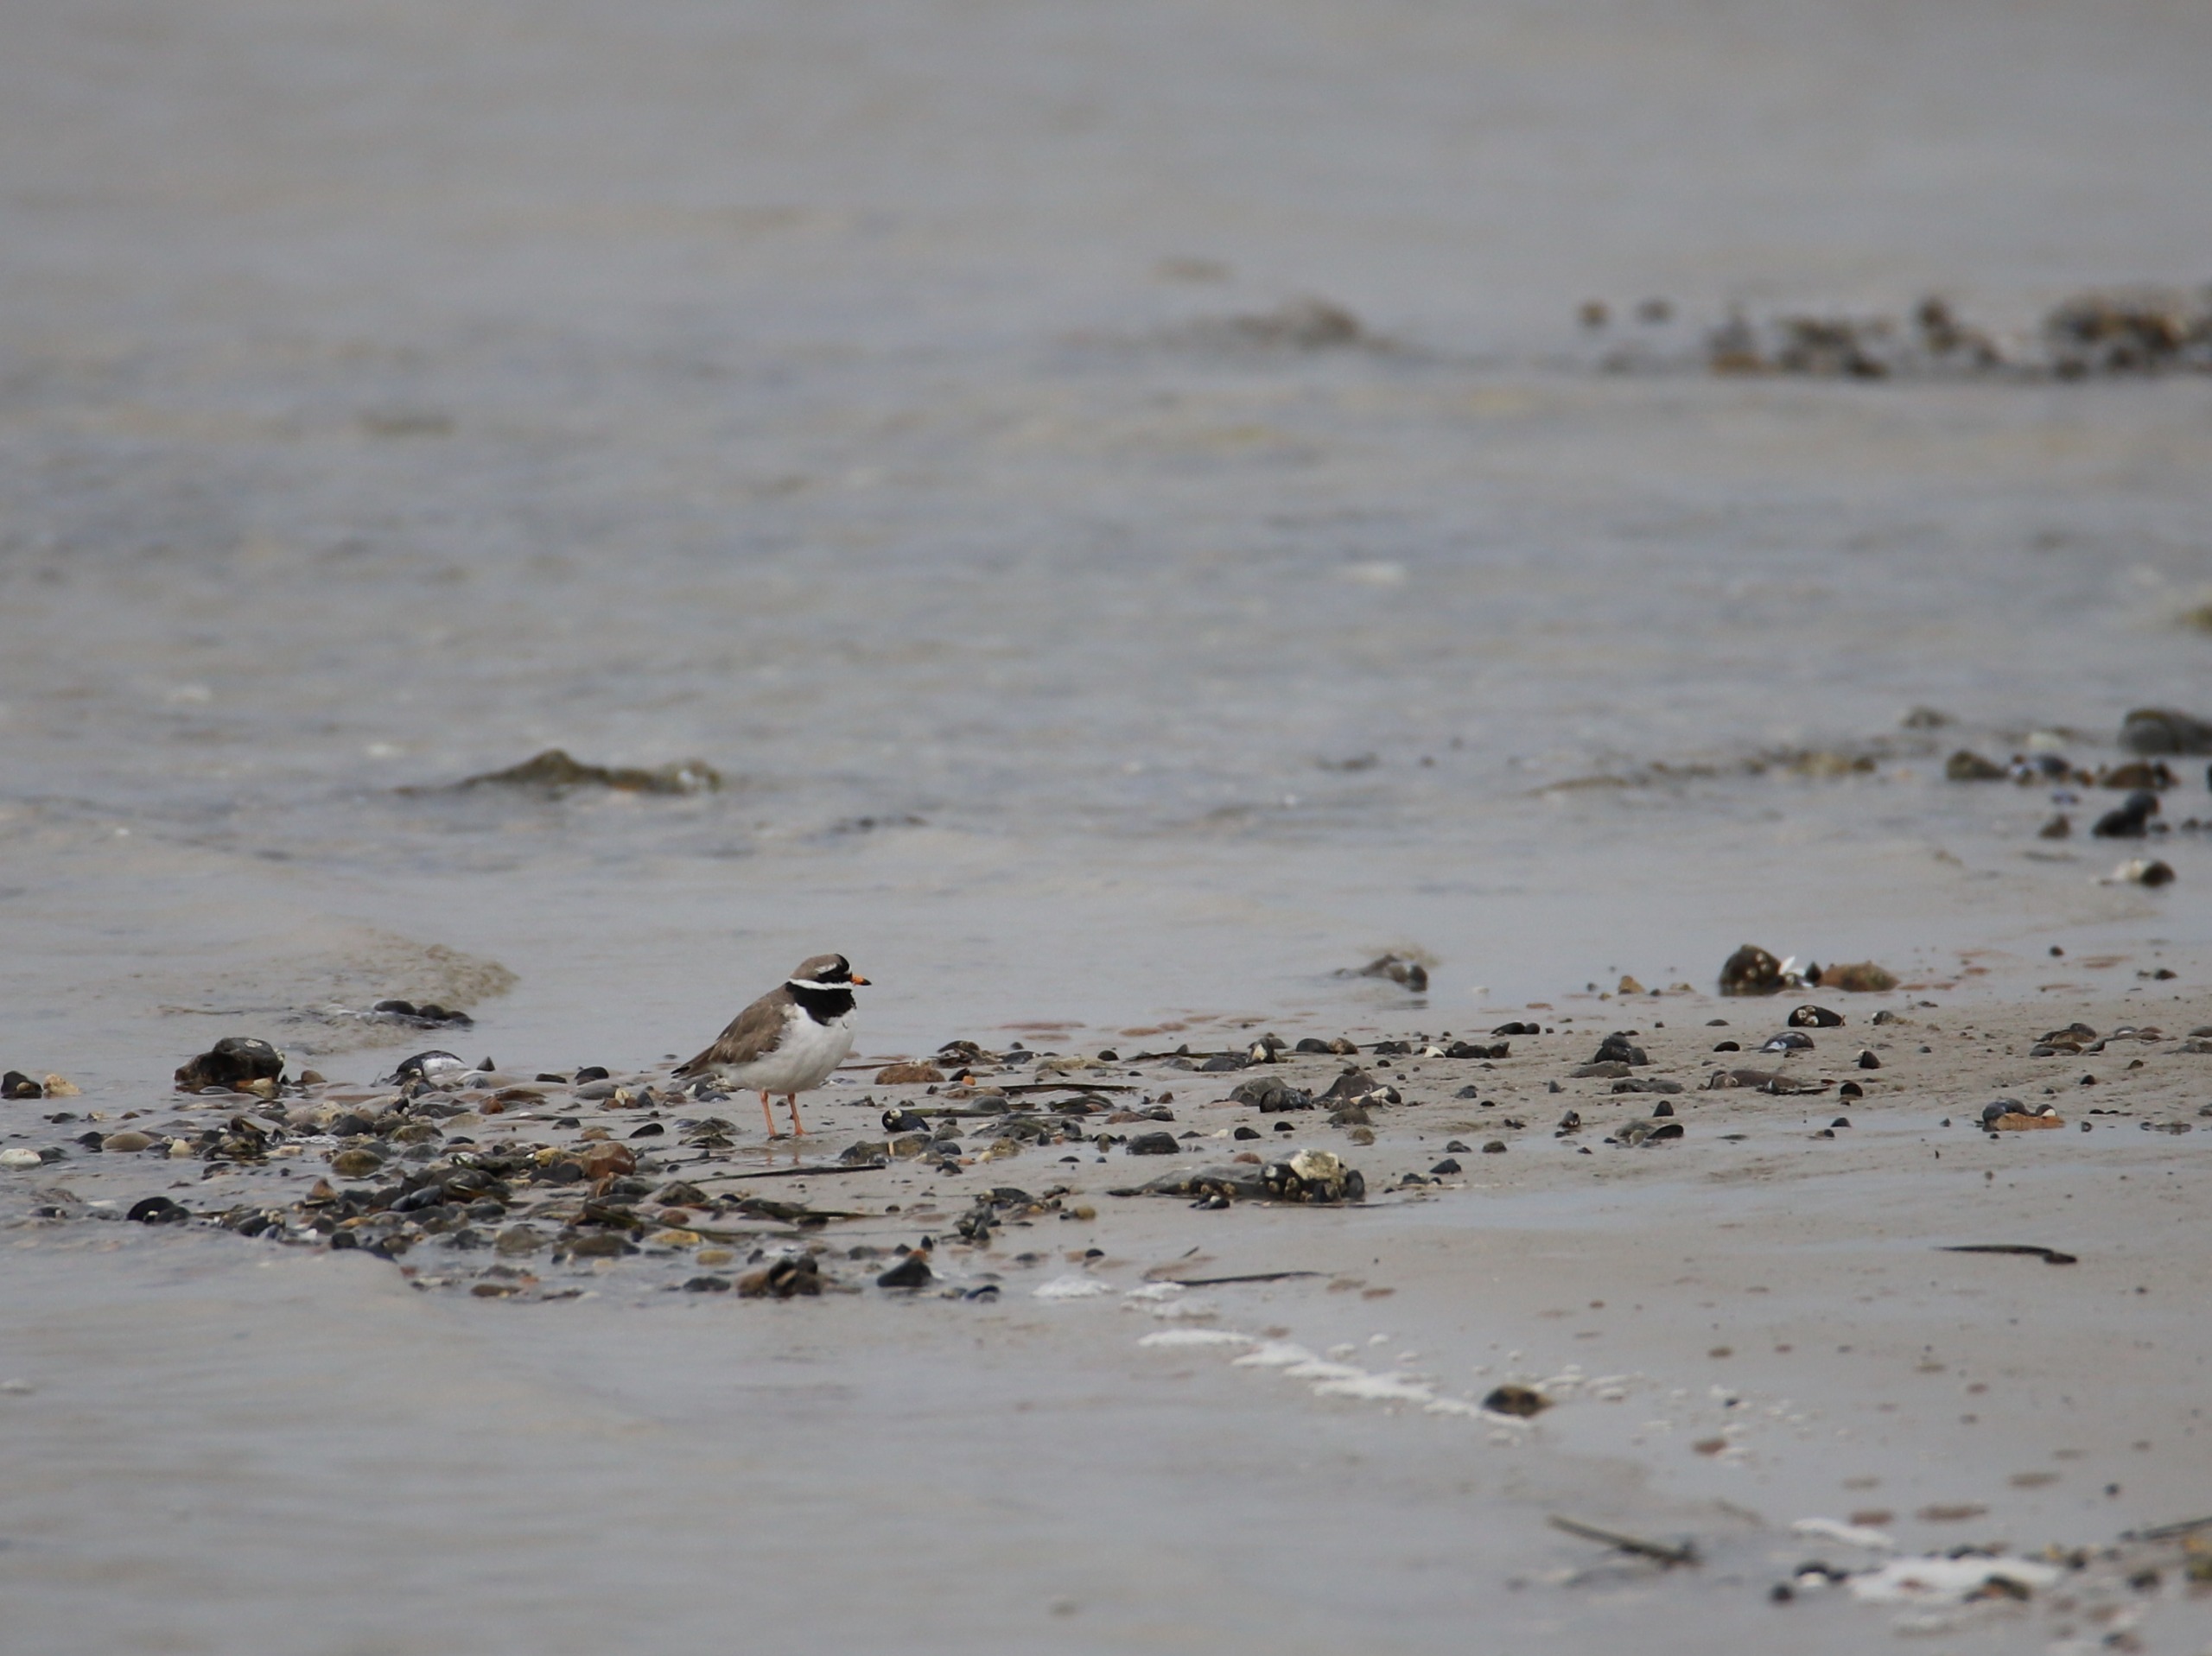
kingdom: Animalia
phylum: Chordata
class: Aves
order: Charadriiformes
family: Charadriidae
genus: Charadrius
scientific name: Charadrius hiaticula
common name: Stor præstekrave
